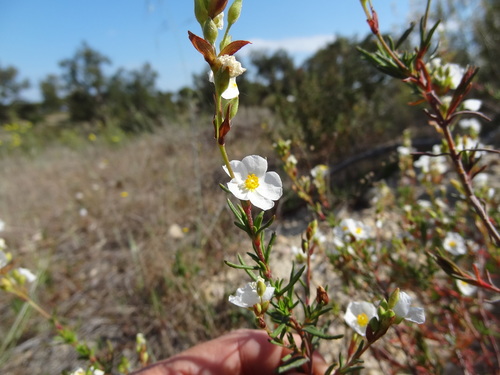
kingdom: Plantae
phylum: Tracheophyta
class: Magnoliopsida
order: Malvales
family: Cistaceae
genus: Halimium
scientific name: Halimium umbellatum
